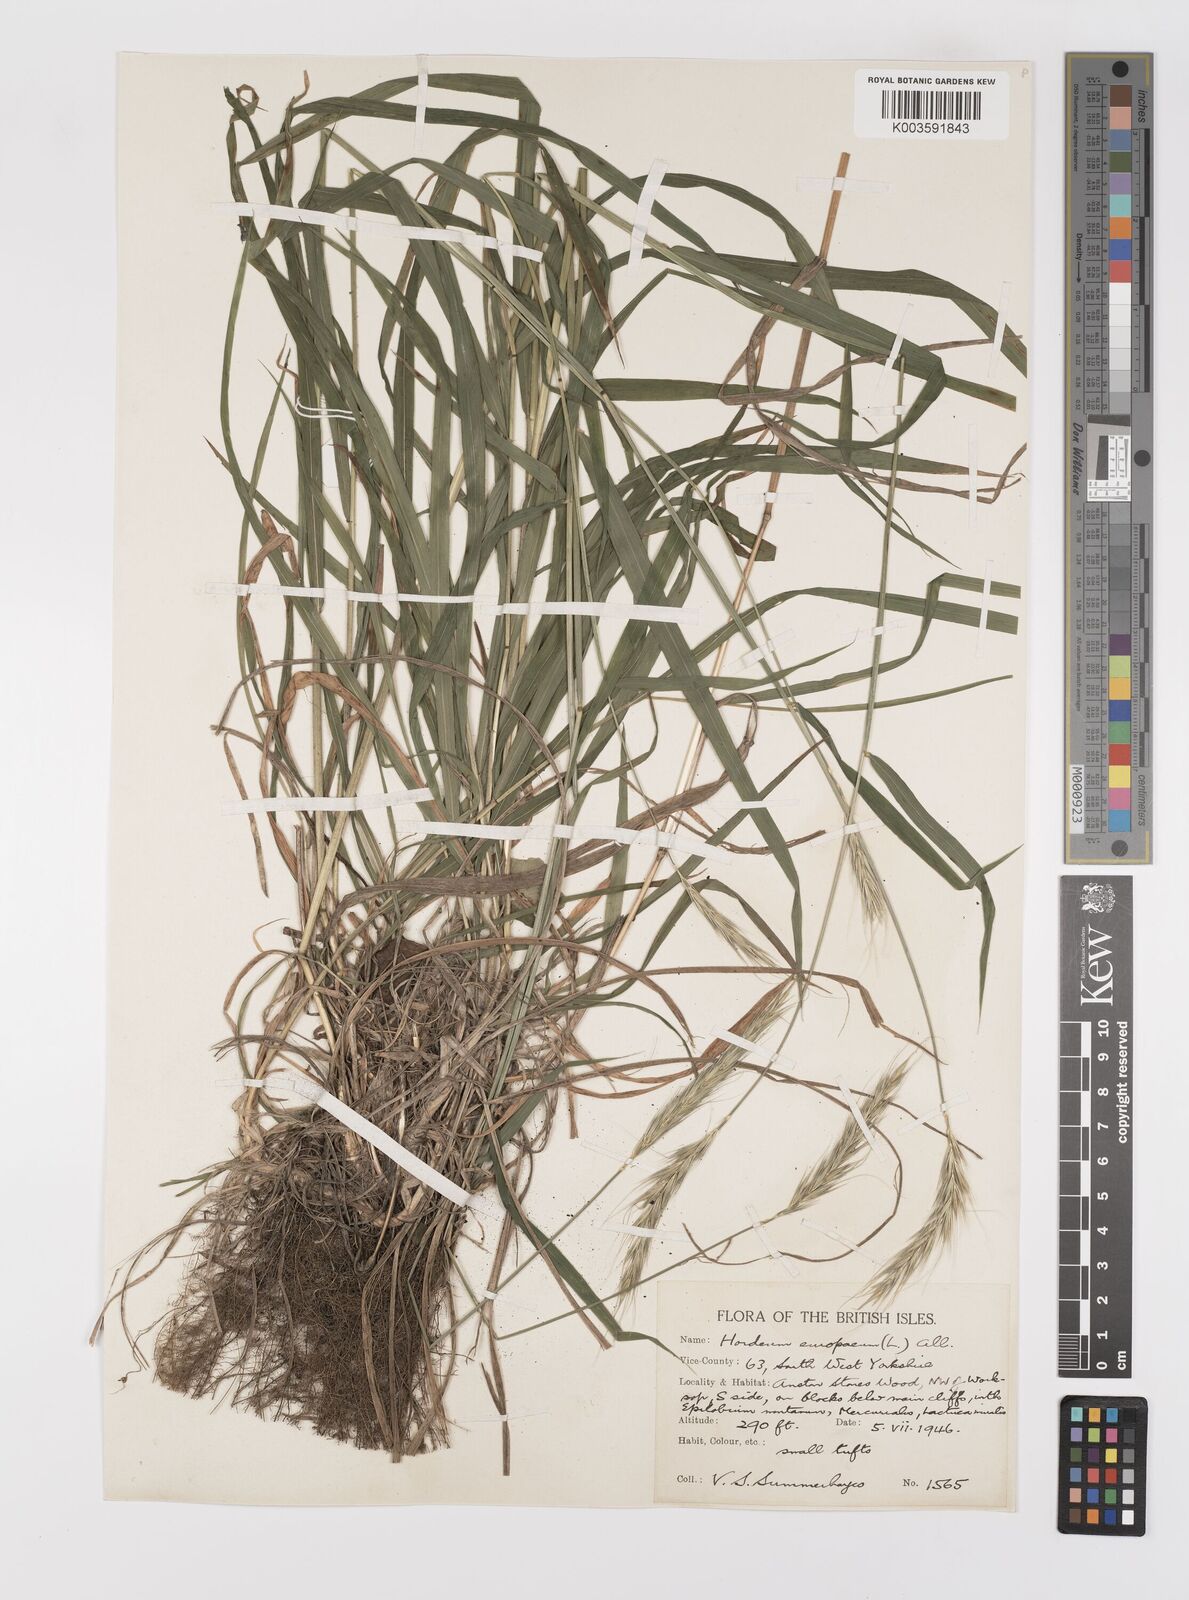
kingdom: Plantae
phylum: Tracheophyta
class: Liliopsida
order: Poales
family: Poaceae
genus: Hordelymus
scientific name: Hordelymus europaeus
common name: Wood-barley
